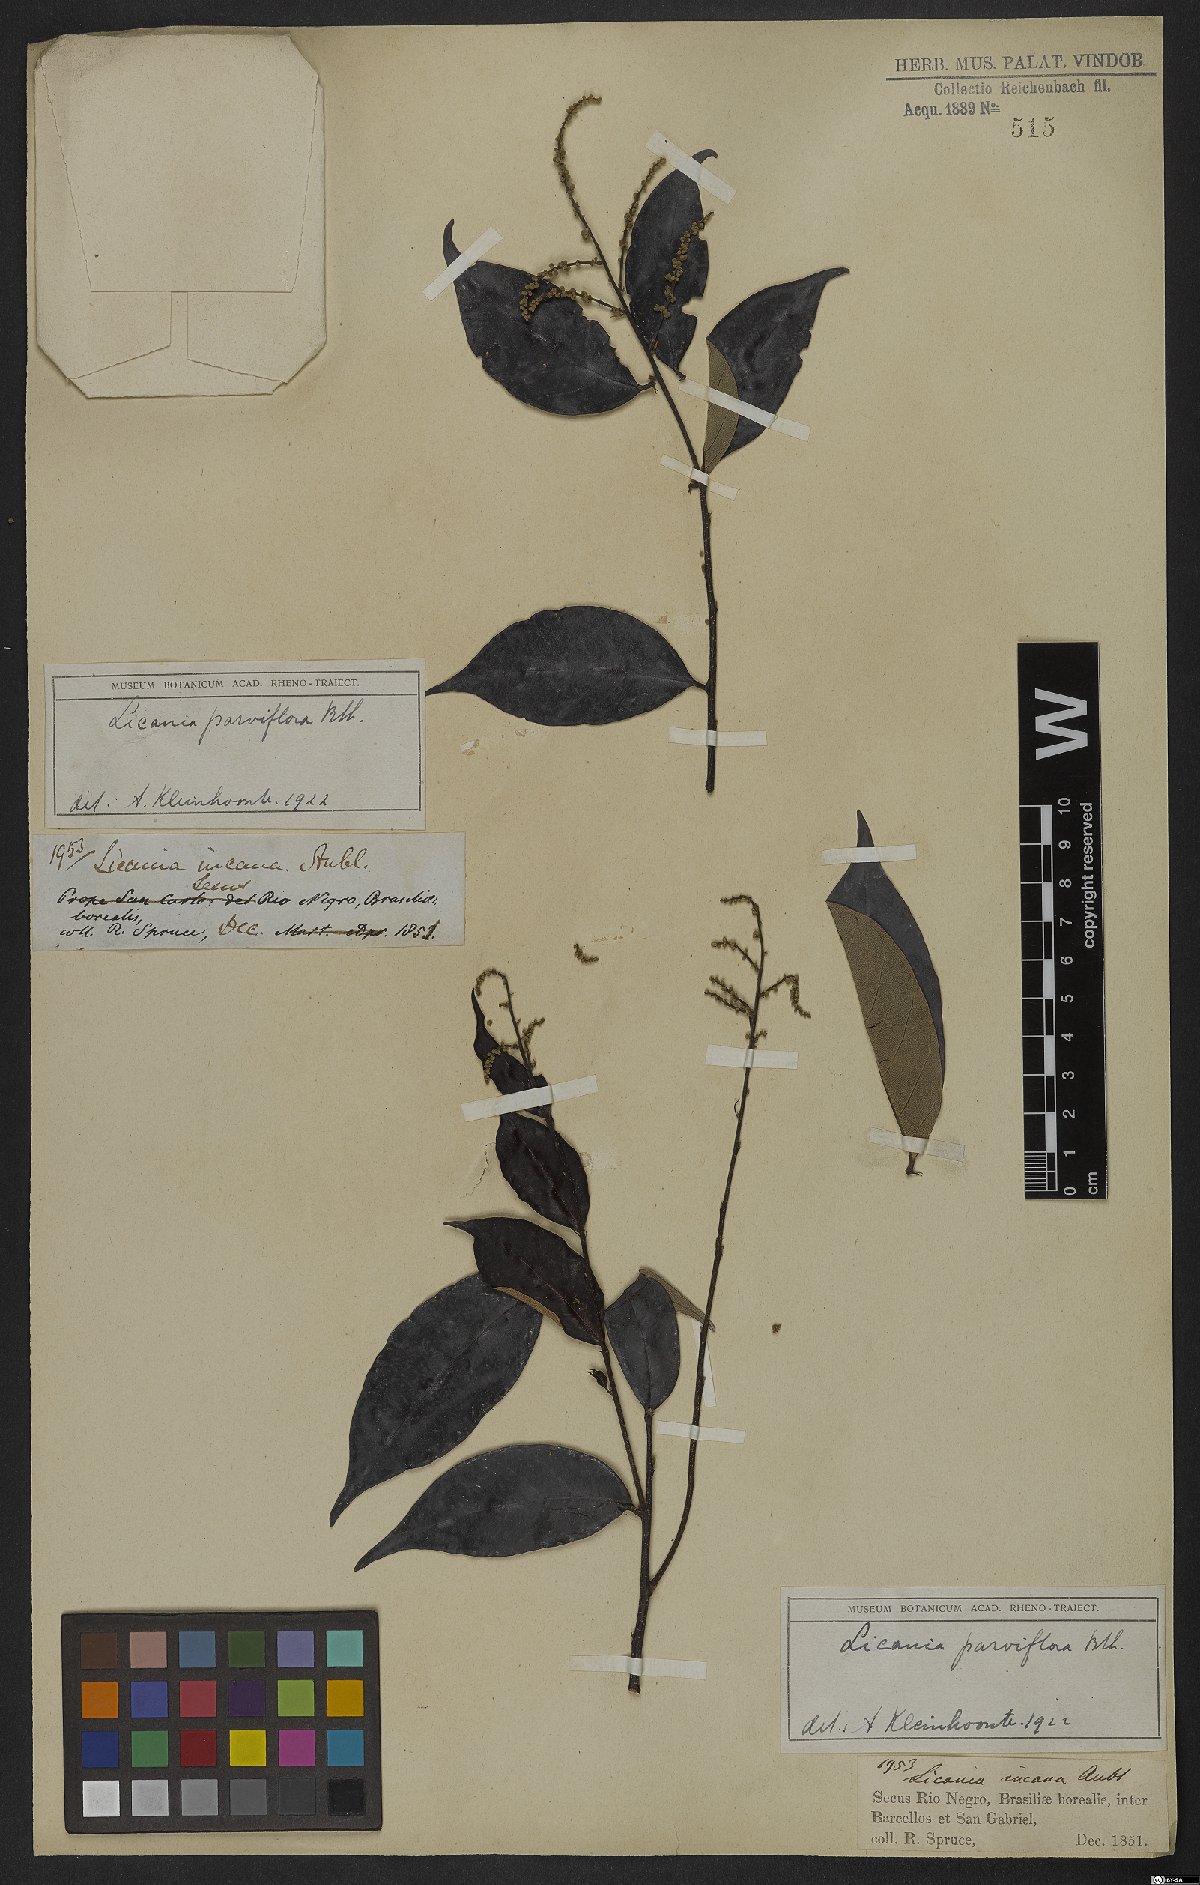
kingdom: Plantae
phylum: Tracheophyta
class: Magnoliopsida
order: Malpighiales
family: Chrysobalanaceae
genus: Leptobalanus
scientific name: Leptobalanus parviflorus
